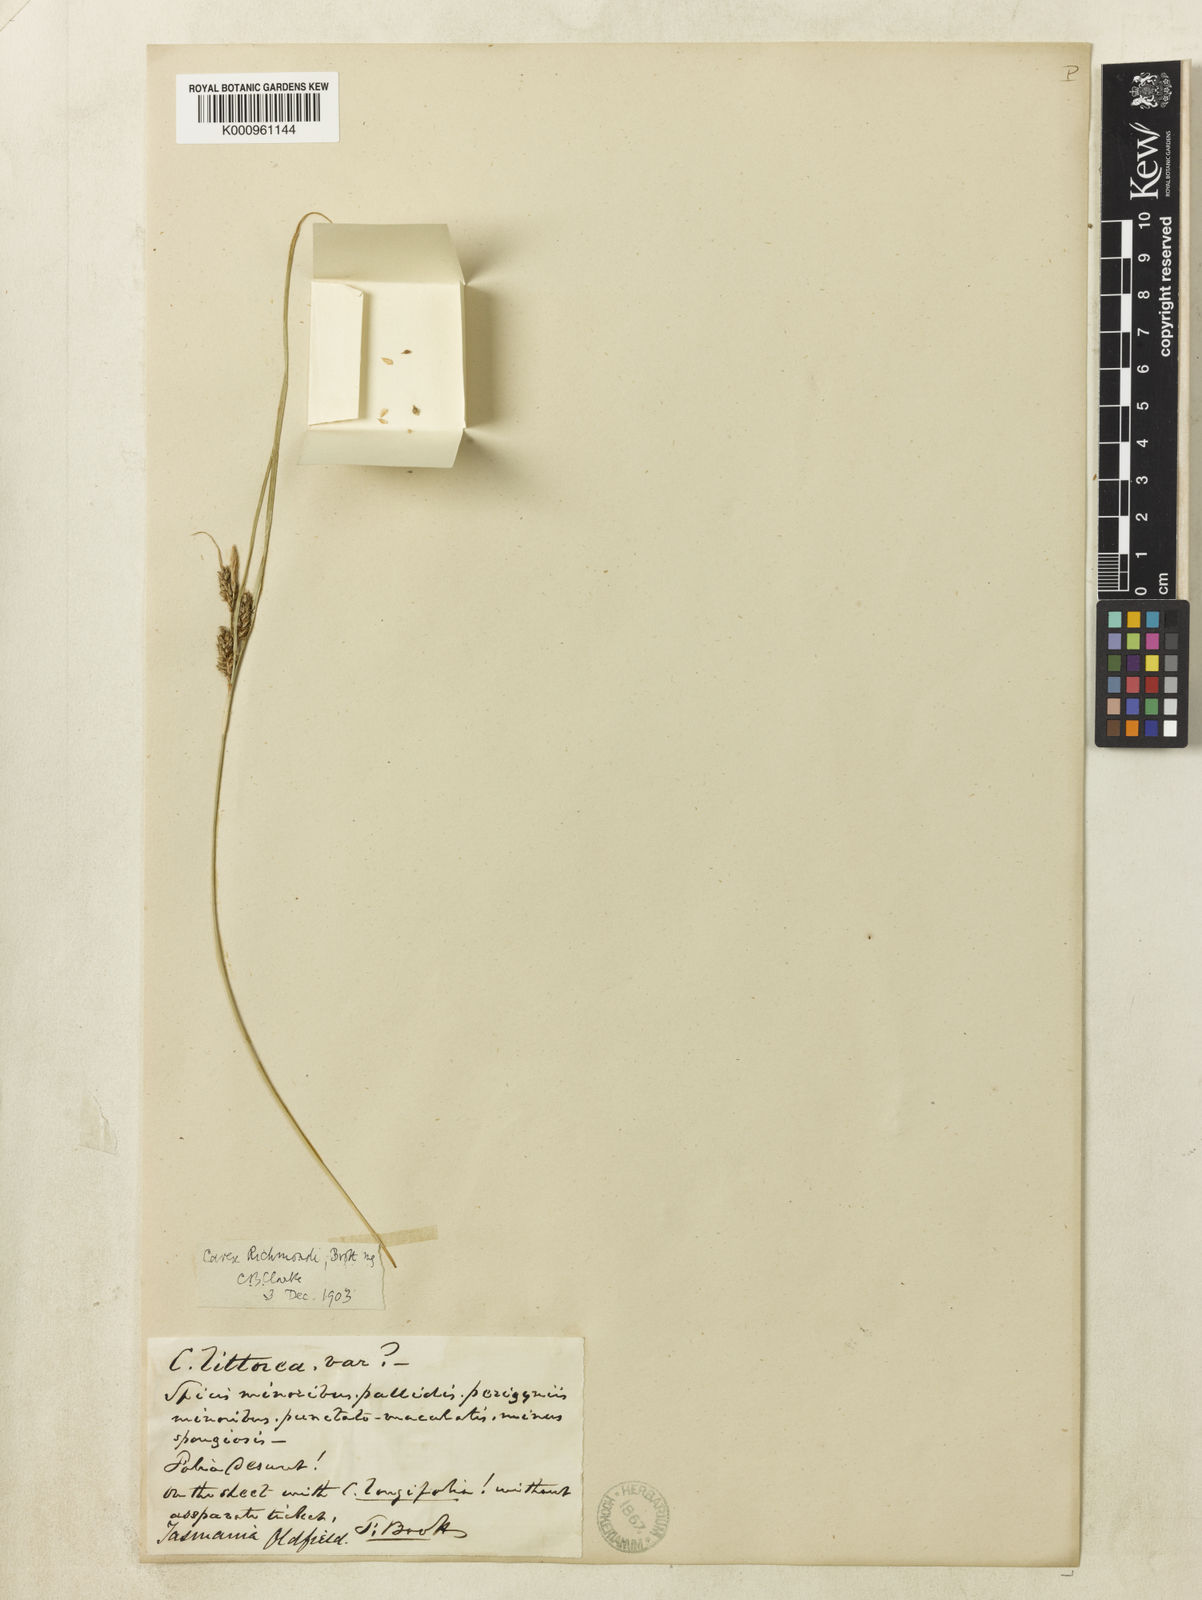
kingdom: Plantae
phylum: Tracheophyta
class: Liliopsida
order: Poales
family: Cyperaceae
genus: Carex
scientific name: Carex
